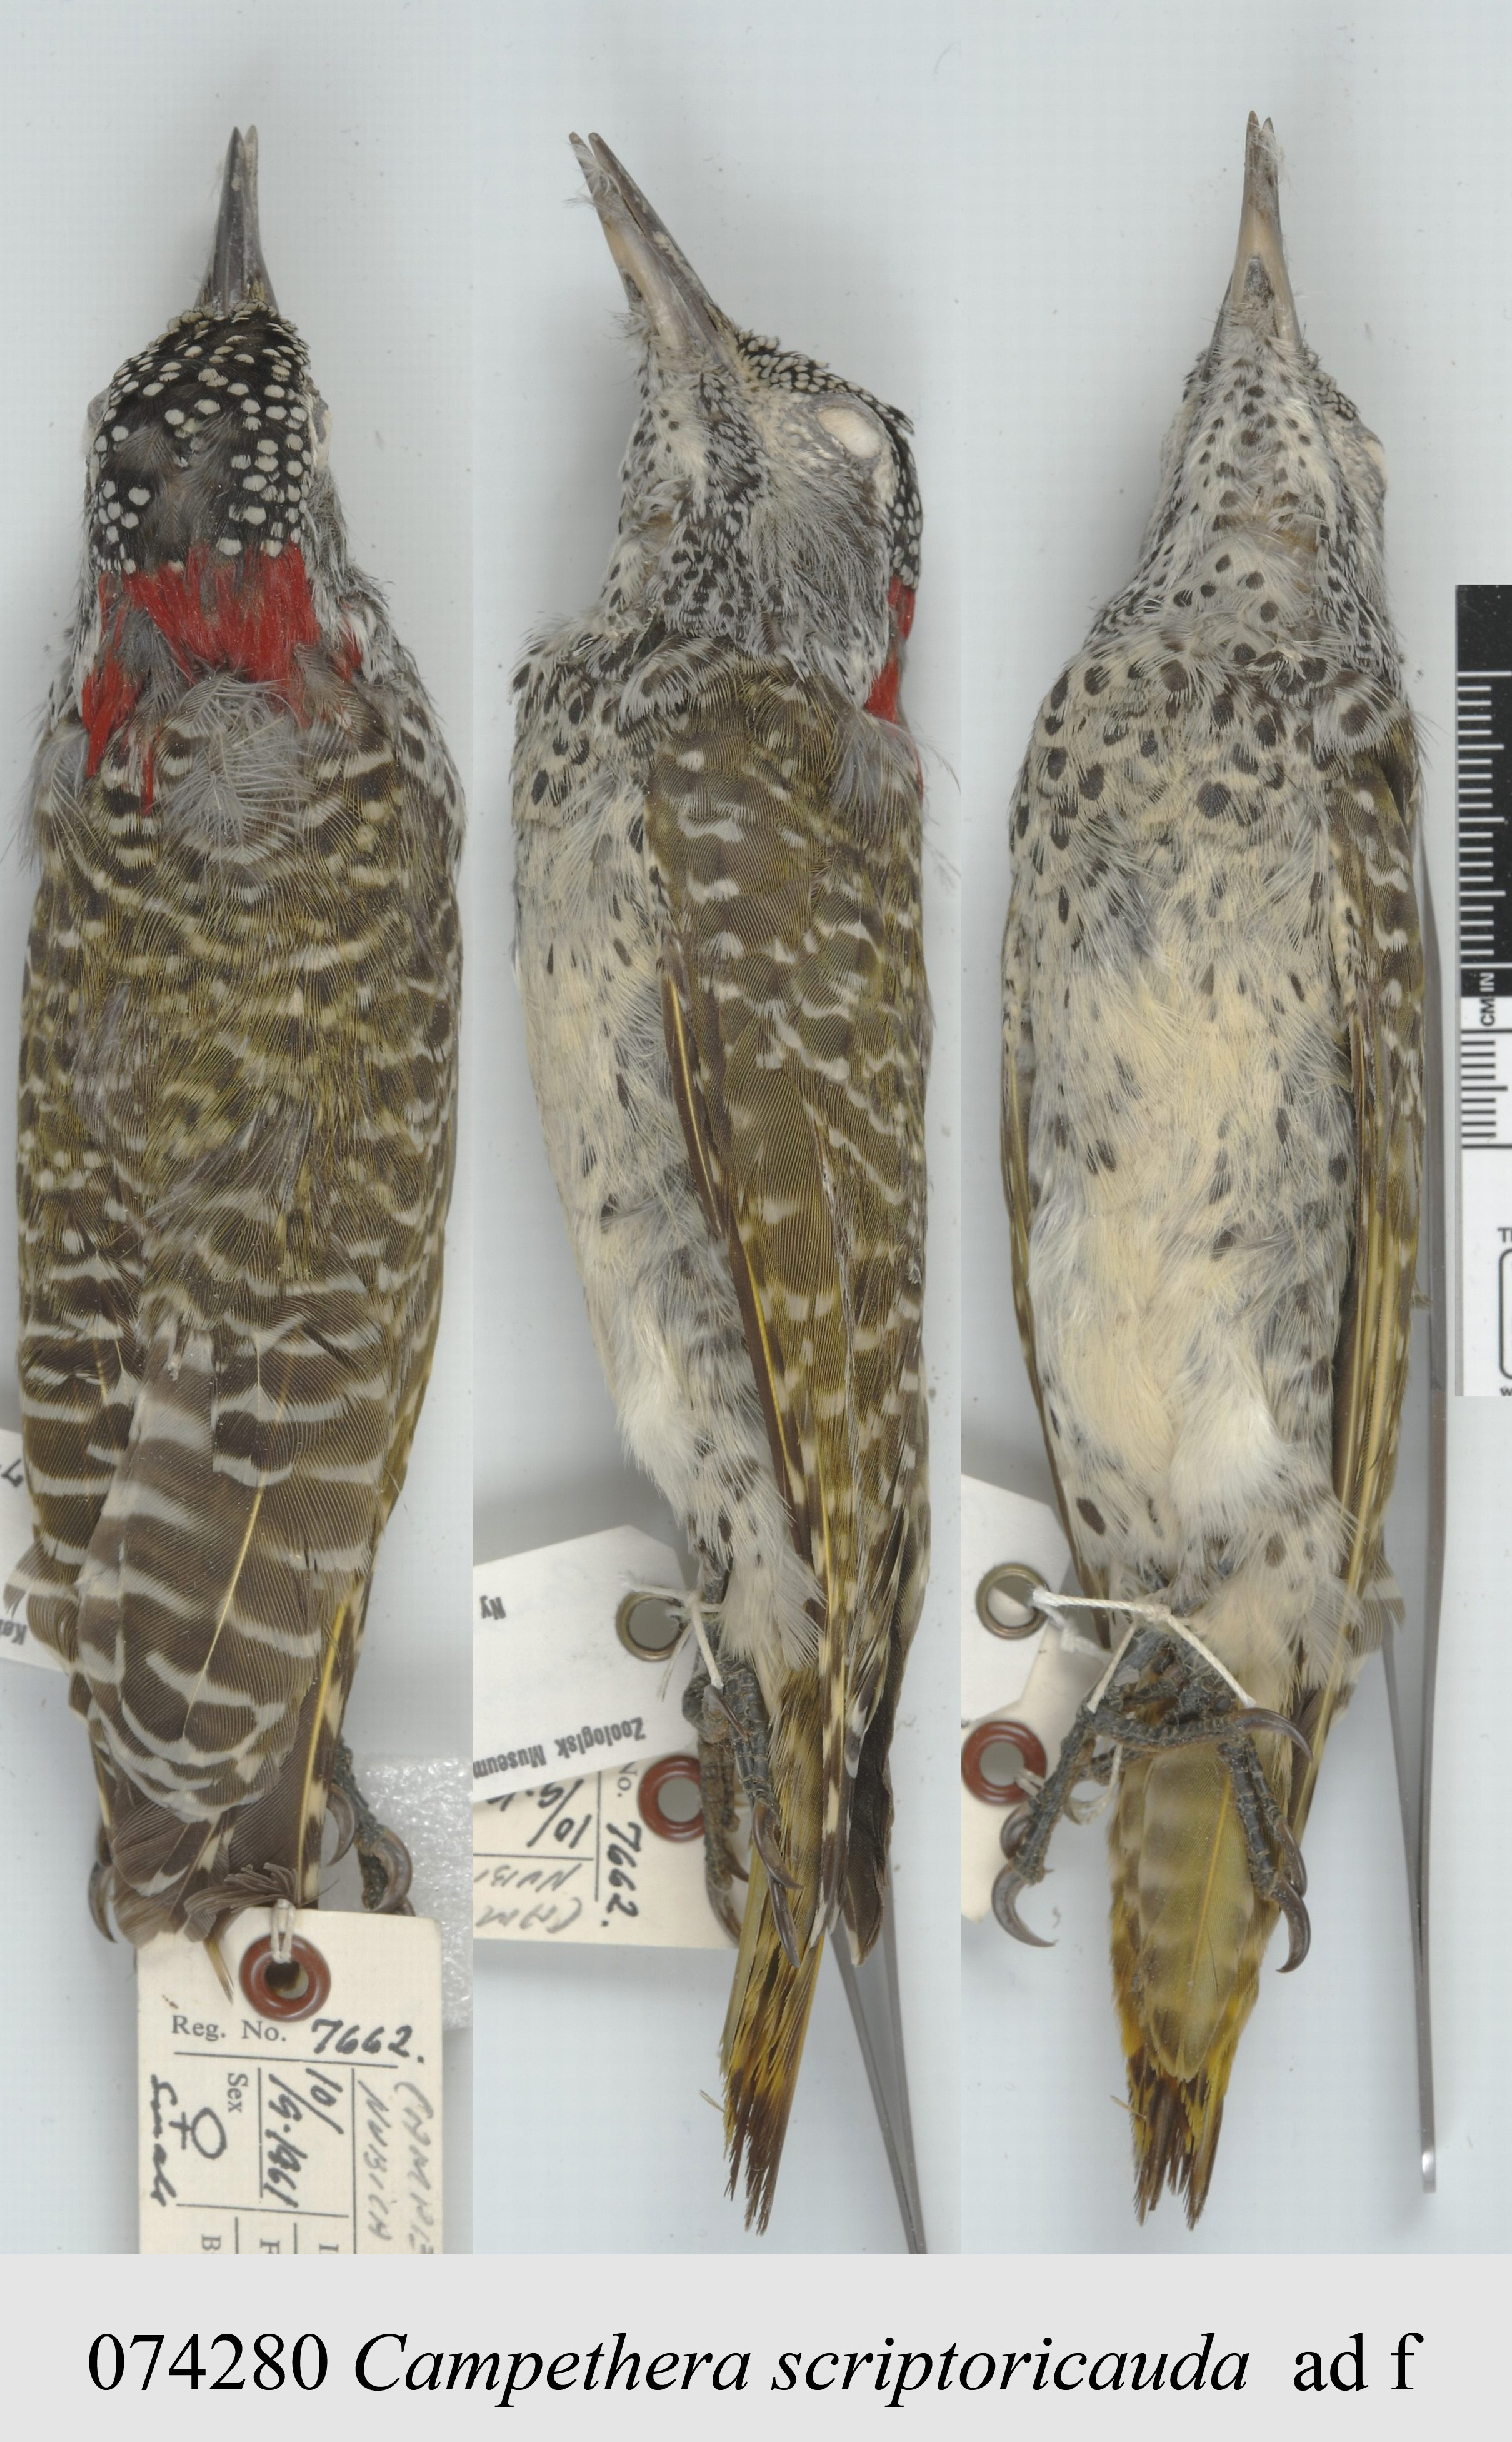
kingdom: Animalia
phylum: Chordata
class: Aves
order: Piciformes
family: Picidae
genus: Campethera
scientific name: Campethera scriptoricauda
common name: Speckle-throated woodpecker
